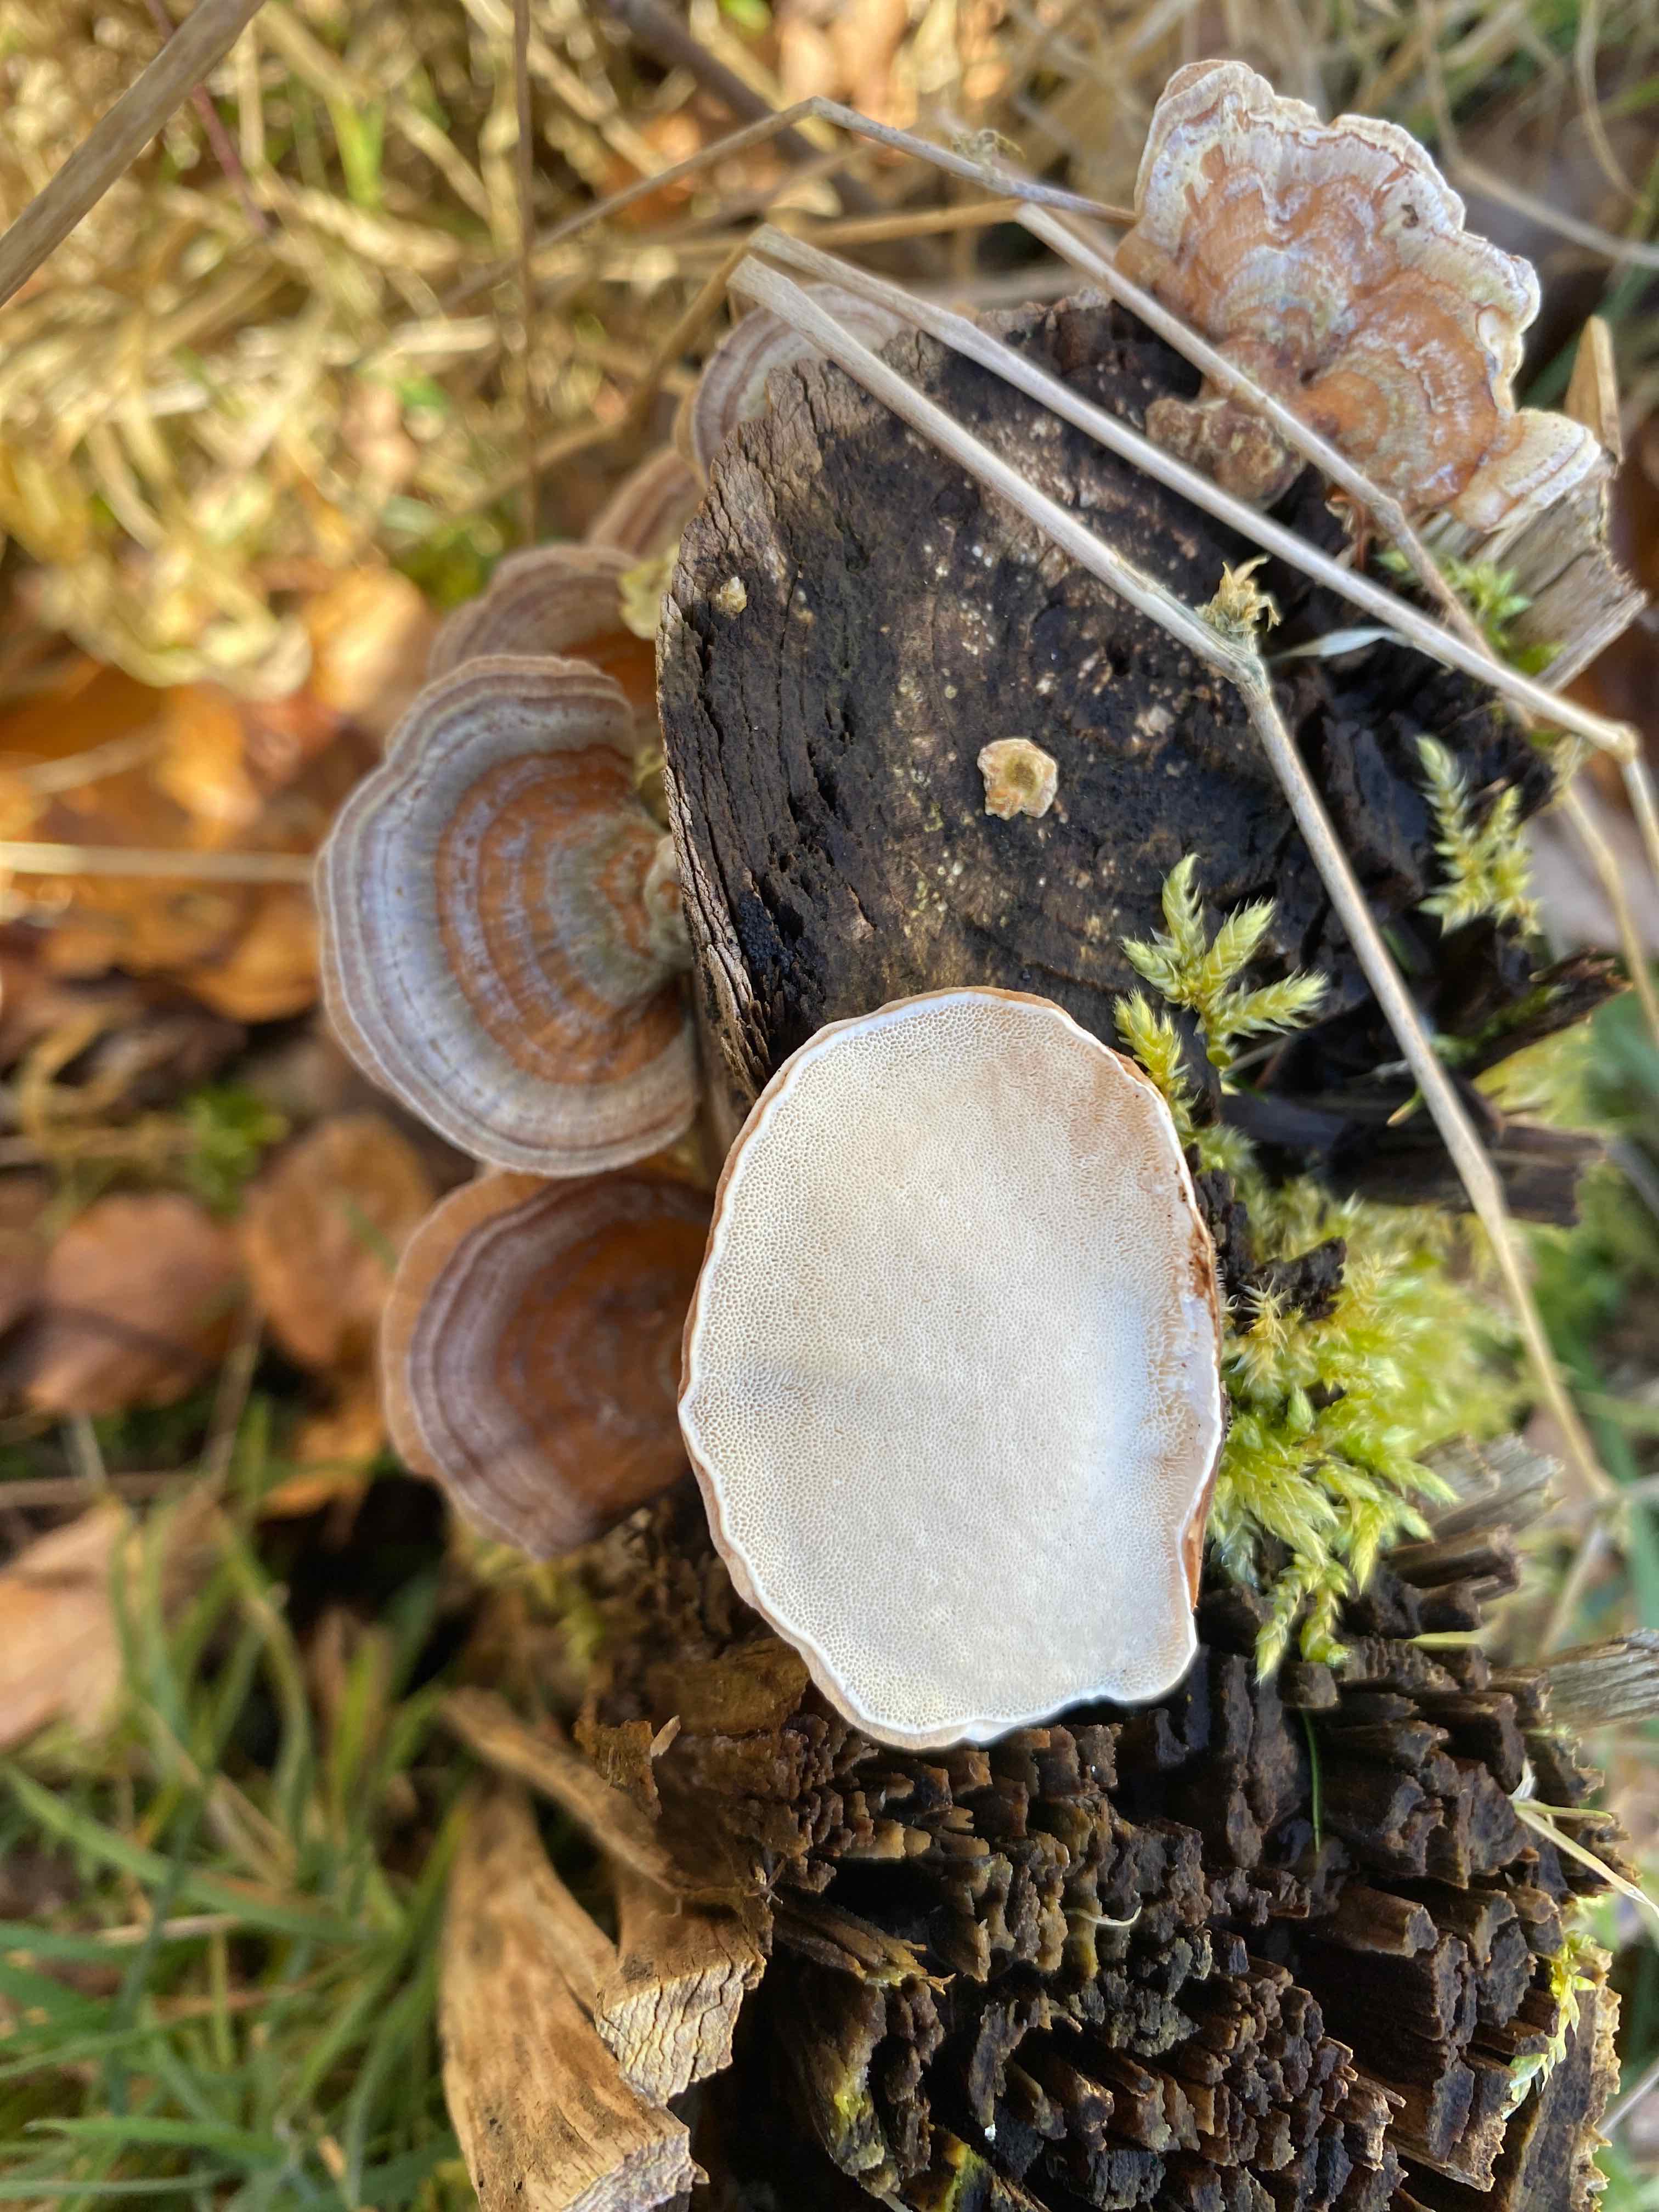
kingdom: Fungi
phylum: Basidiomycota
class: Agaricomycetes
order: Polyporales
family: Polyporaceae
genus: Trametes
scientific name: Trametes versicolor
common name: broget læderporesvamp
